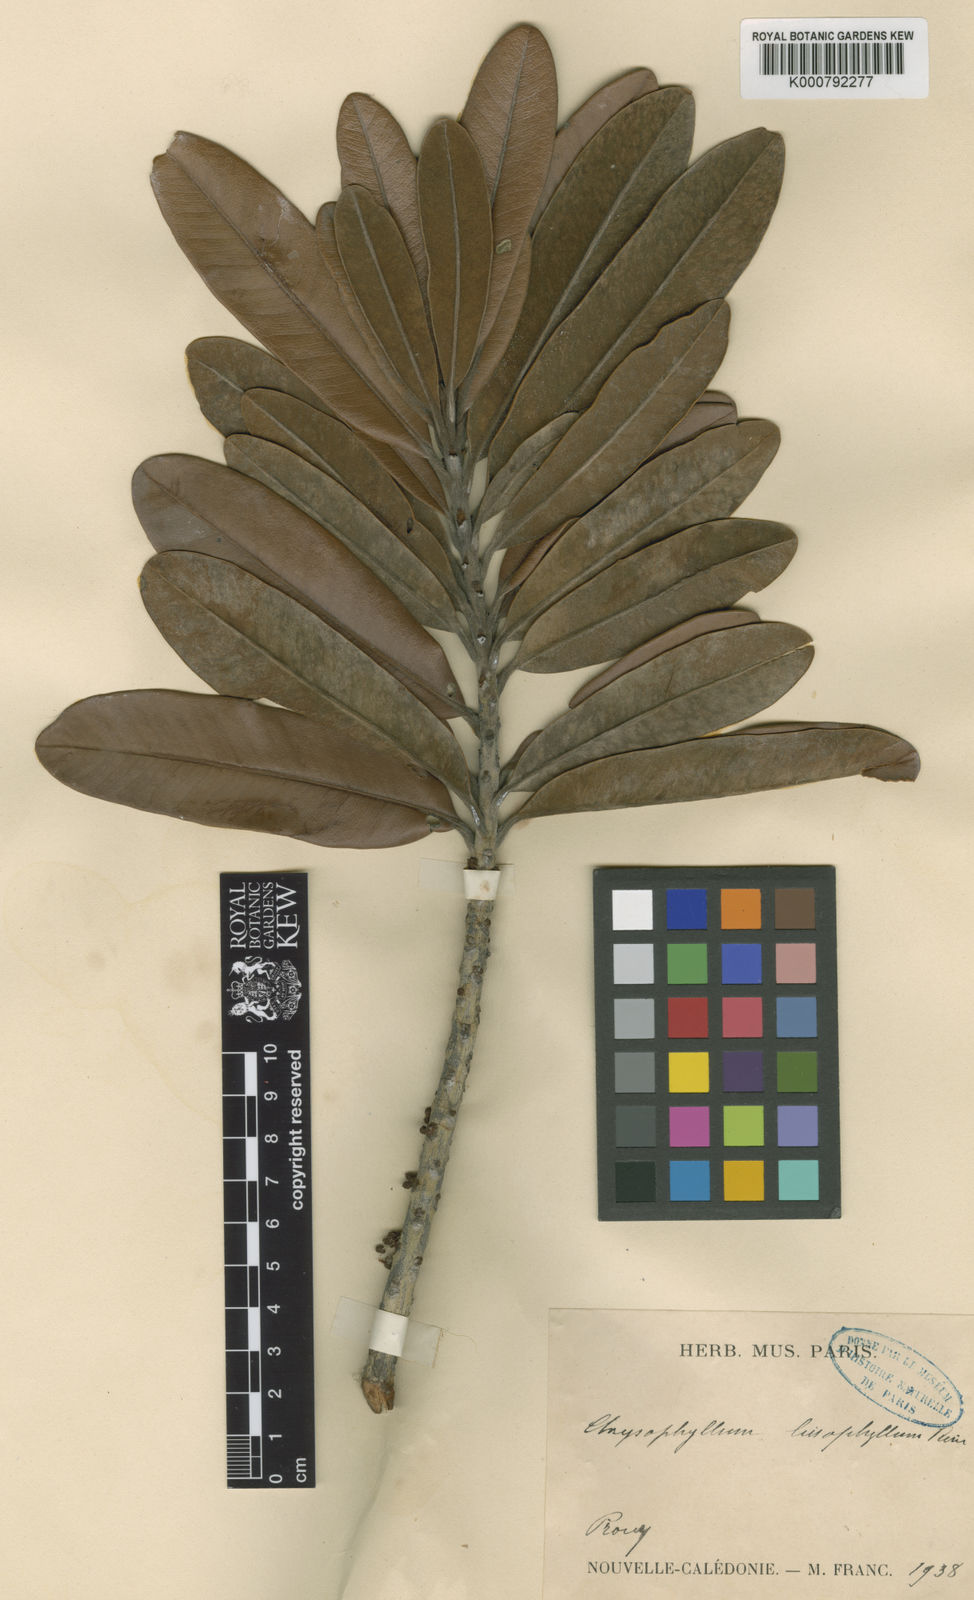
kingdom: Plantae
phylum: Tracheophyta
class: Magnoliopsida
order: Ericales
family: Sapotaceae
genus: Pycnandra
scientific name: Pycnandra lissophylla
